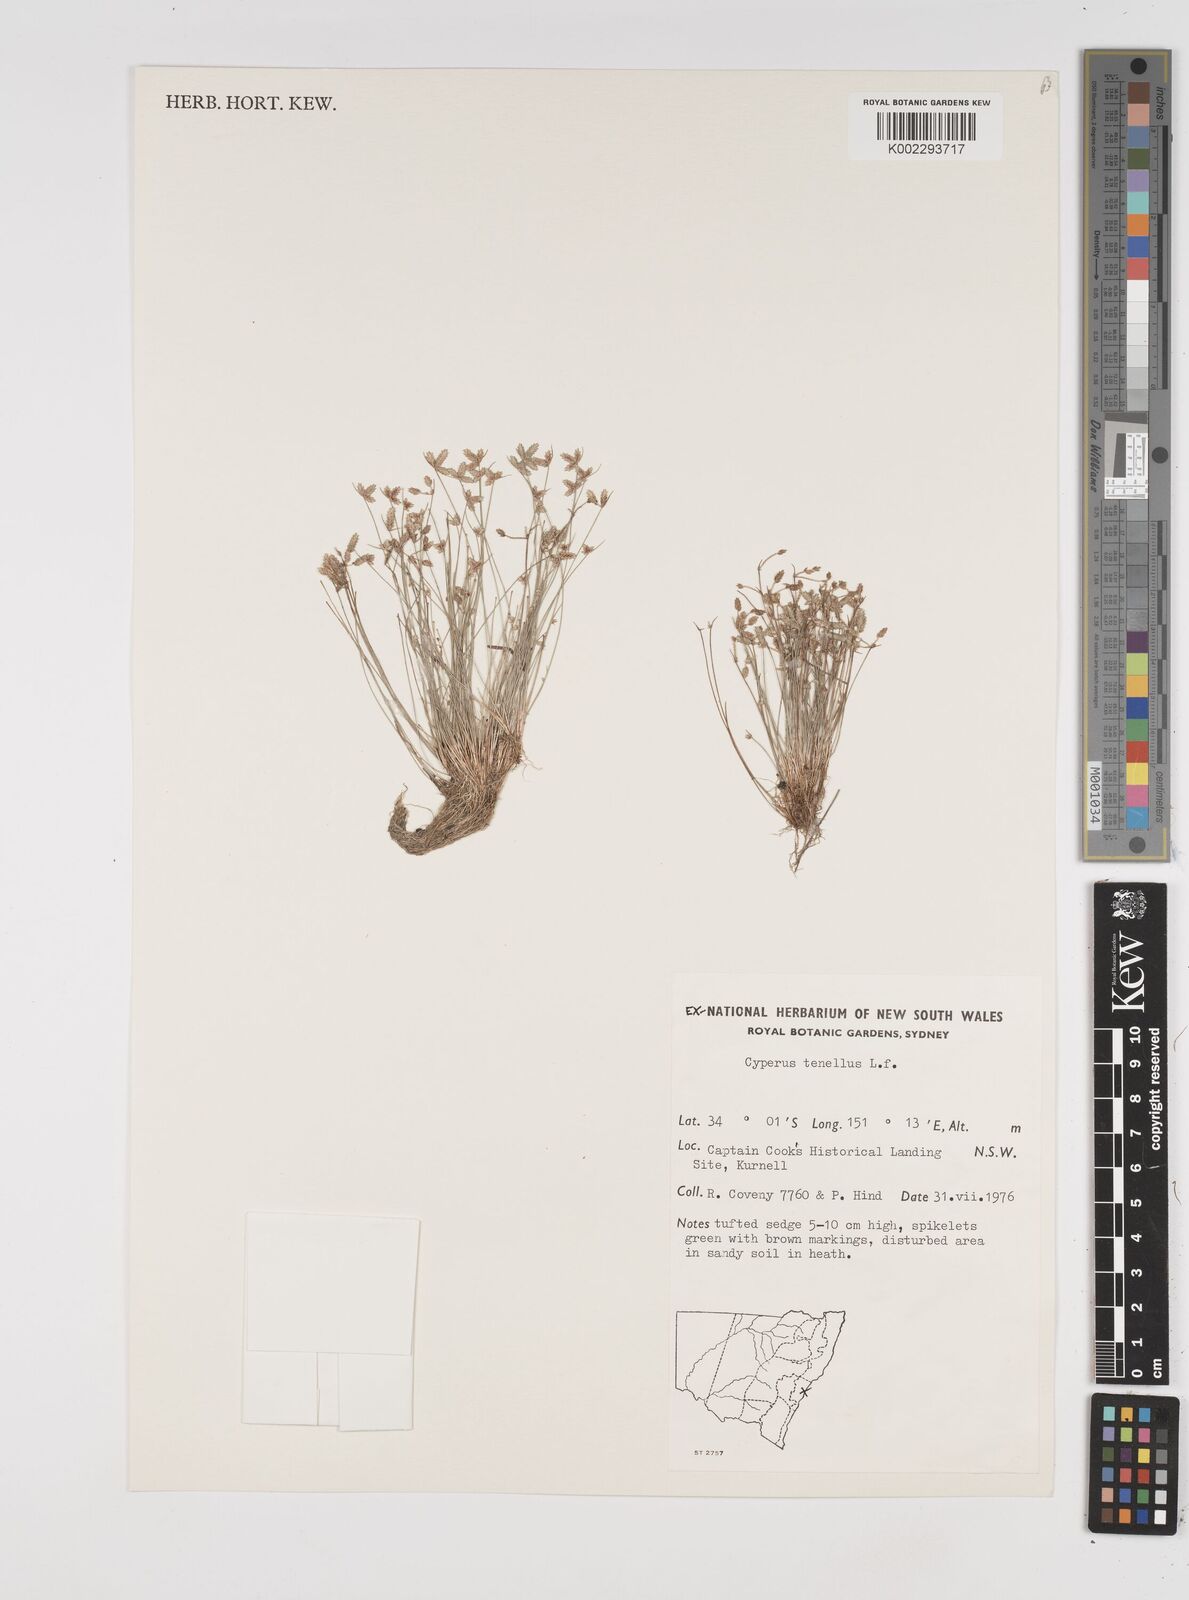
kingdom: Plantae
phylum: Tracheophyta
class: Liliopsida
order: Poales
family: Cyperaceae
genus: Isolepis
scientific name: Isolepis levynsiana
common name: Sedge
